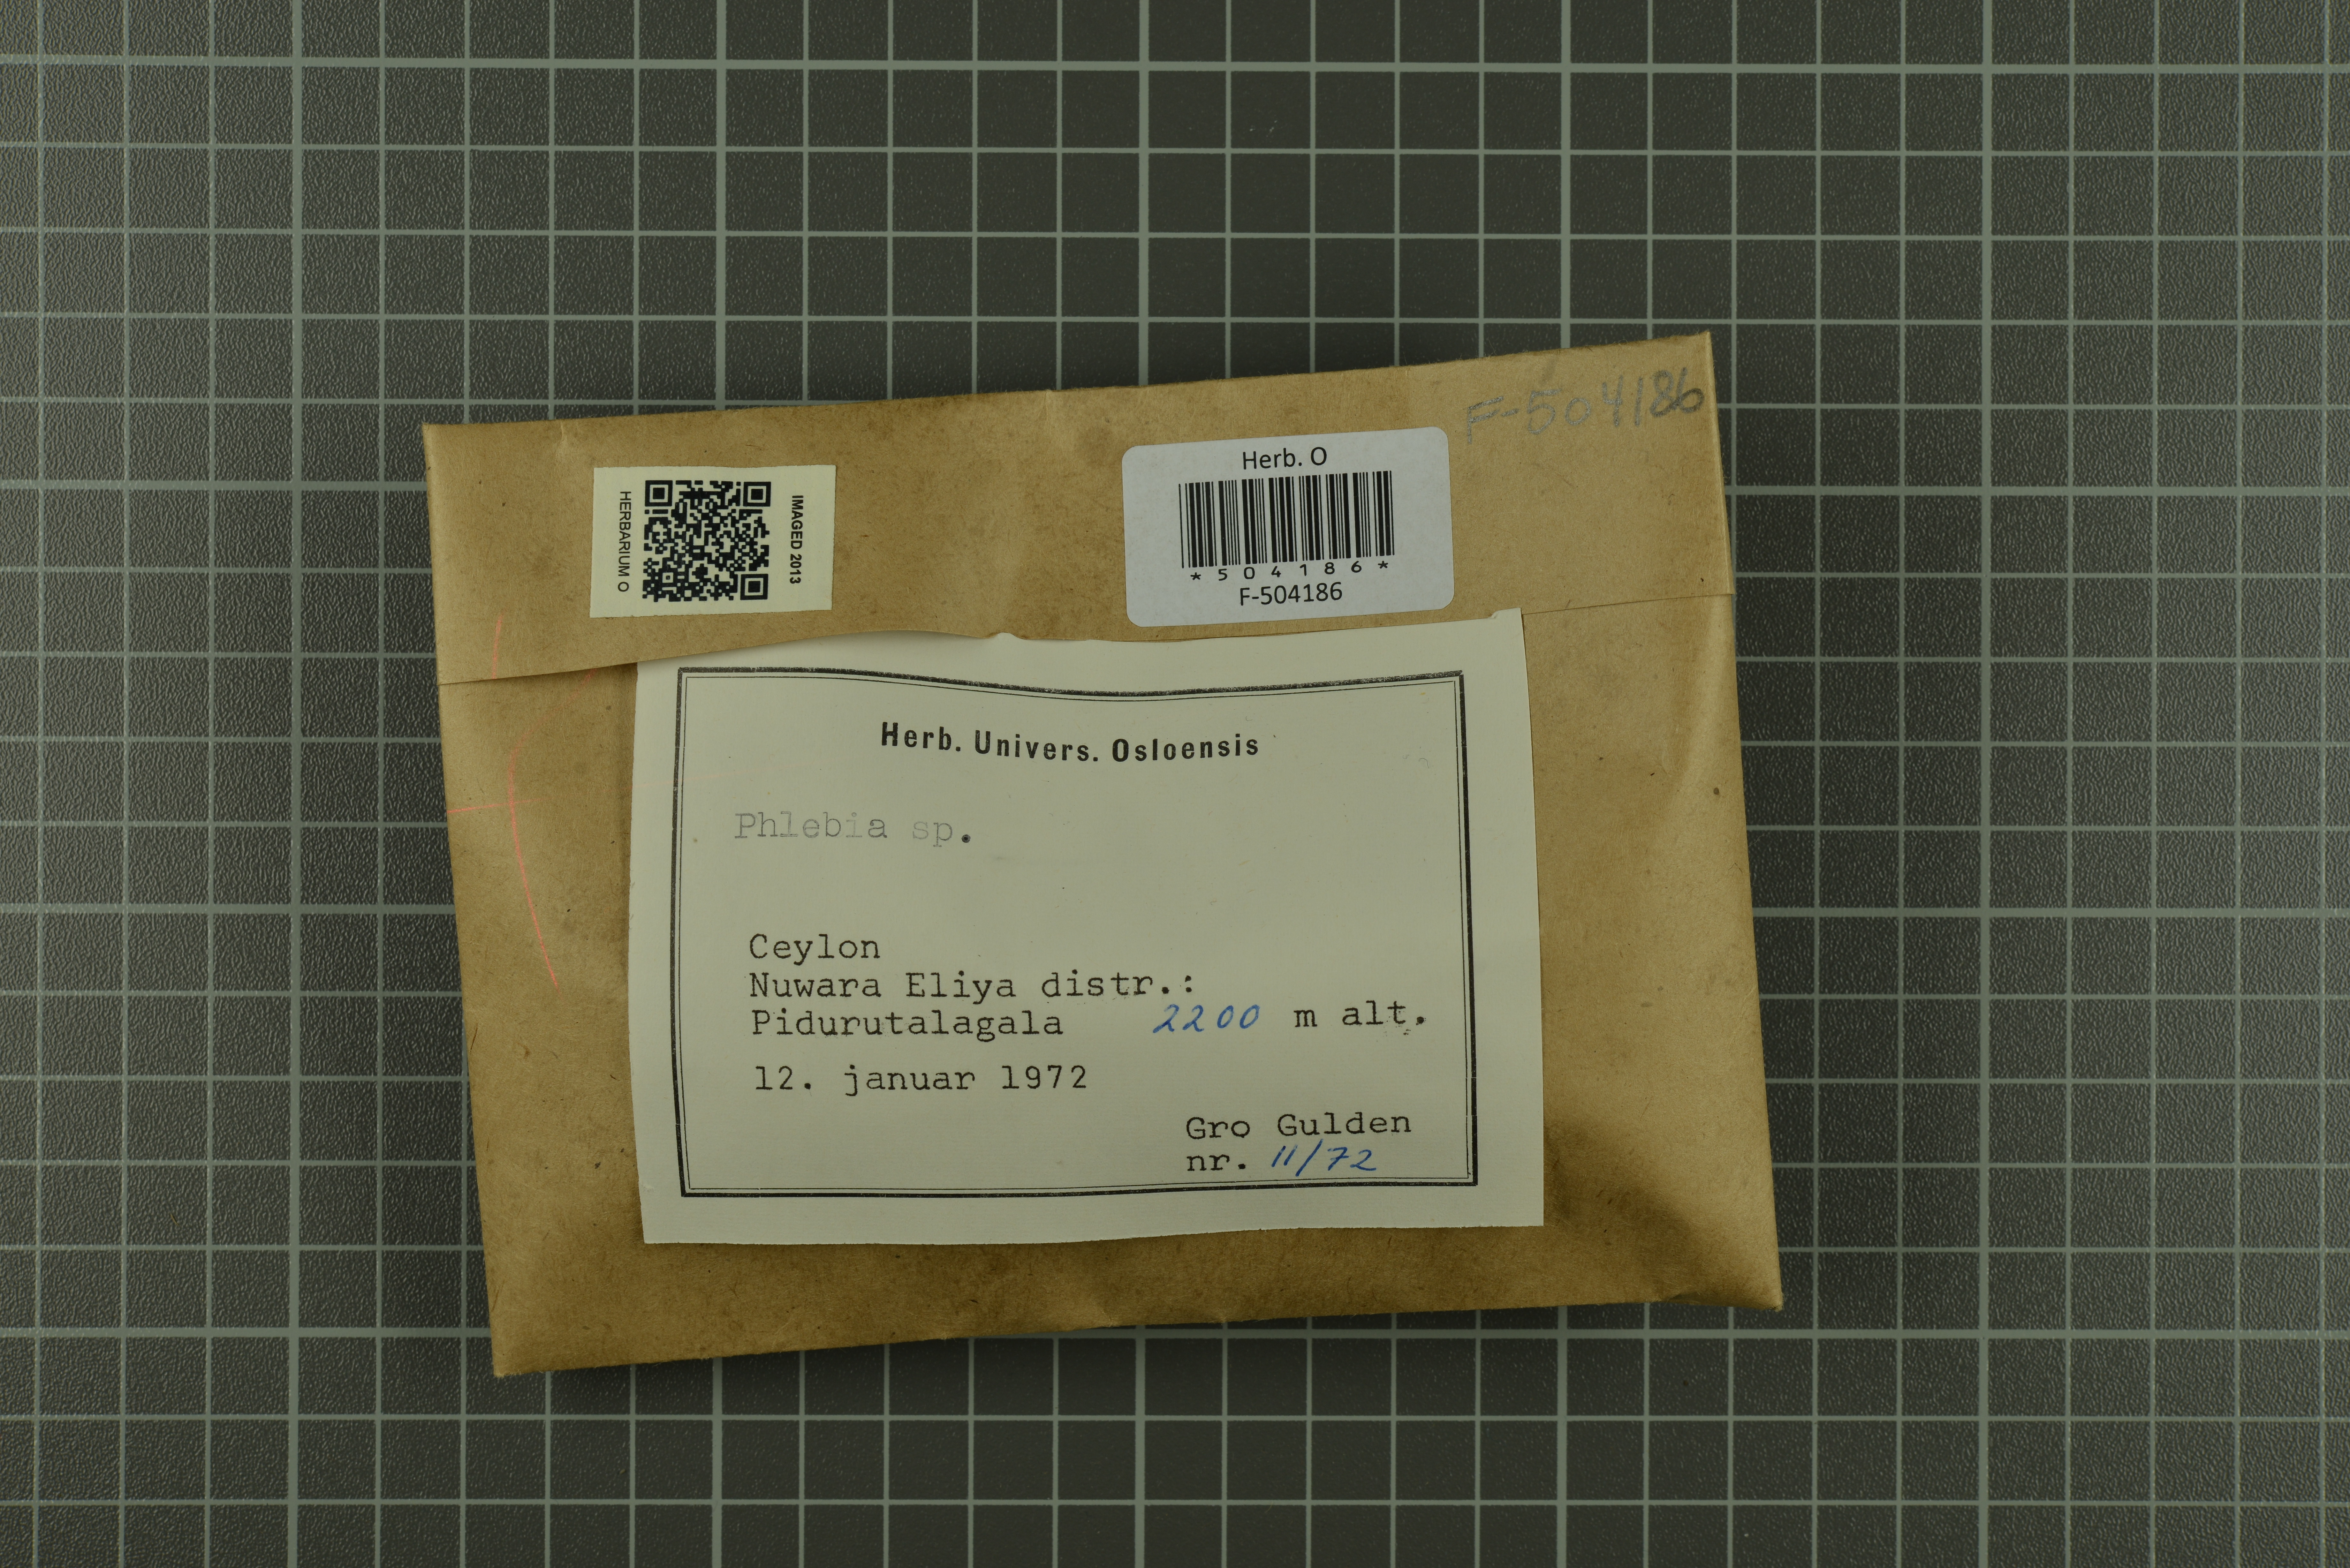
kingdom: Fungi
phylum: Basidiomycota
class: Agaricomycetes
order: Polyporales
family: Meruliaceae
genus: Phlebia
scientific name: Phlebia
